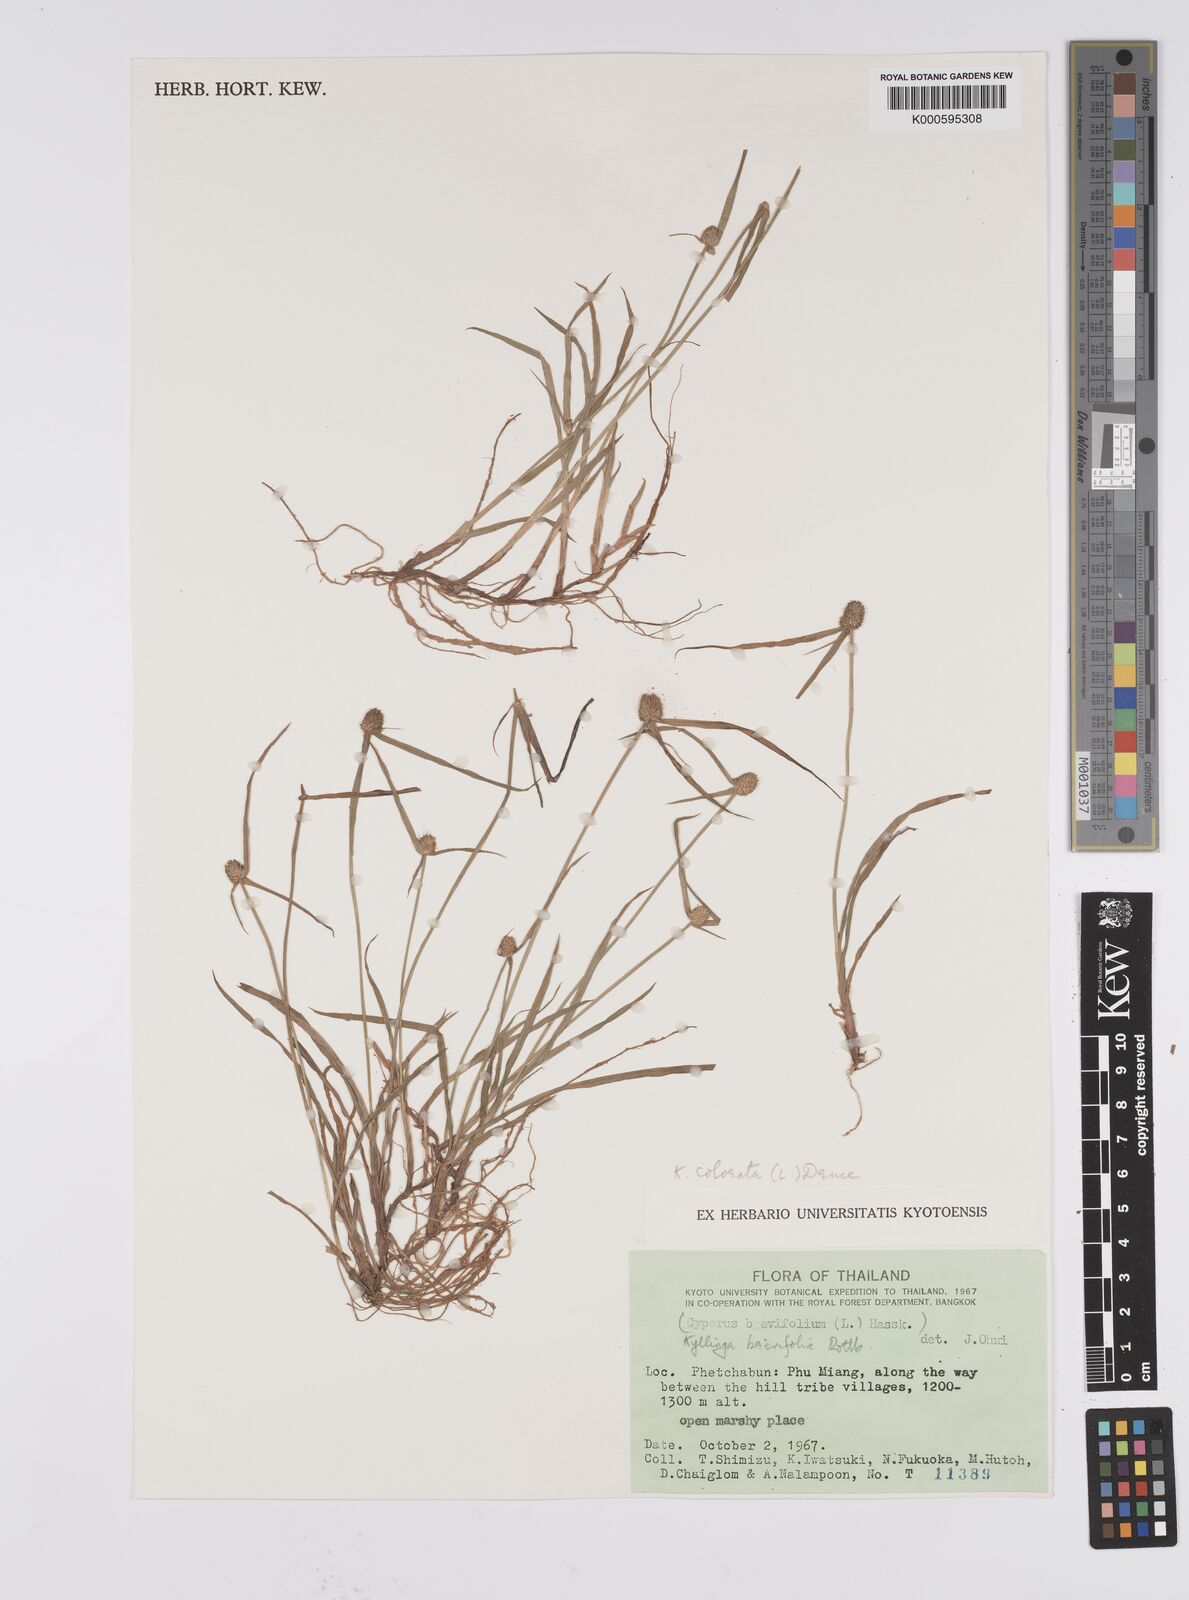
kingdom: Plantae
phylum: Tracheophyta
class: Liliopsida
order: Poales
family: Cyperaceae
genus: Cyperus
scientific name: Cyperus brevifolius
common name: Globe kyllinga
